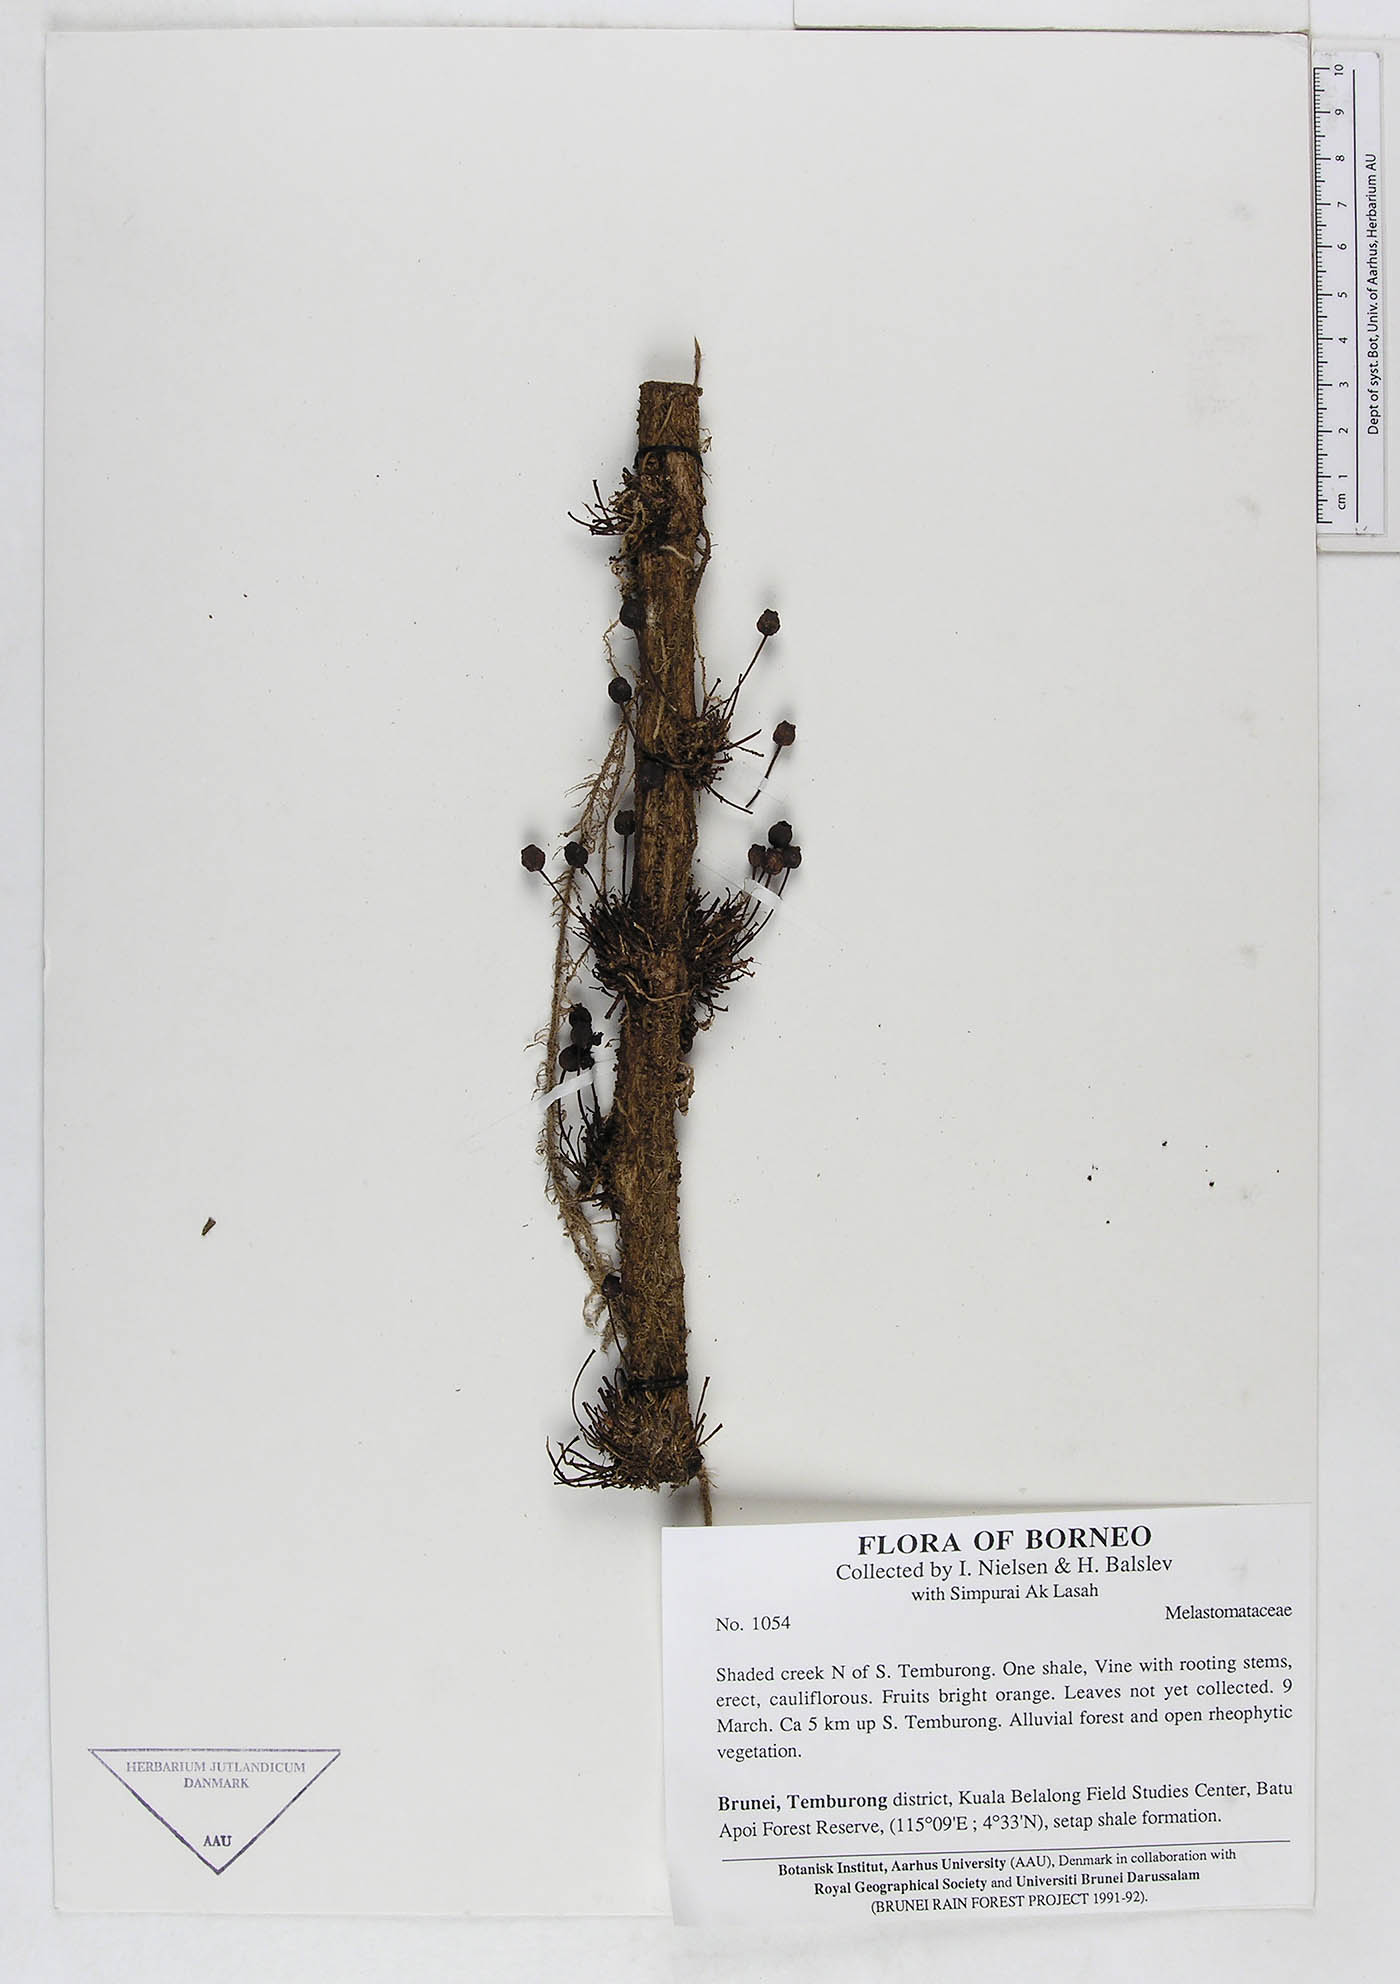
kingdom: Plantae
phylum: Tracheophyta
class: Magnoliopsida
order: Myrtales
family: Melastomataceae
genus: Heteroblemma
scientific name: Heteroblemma alternifolium
